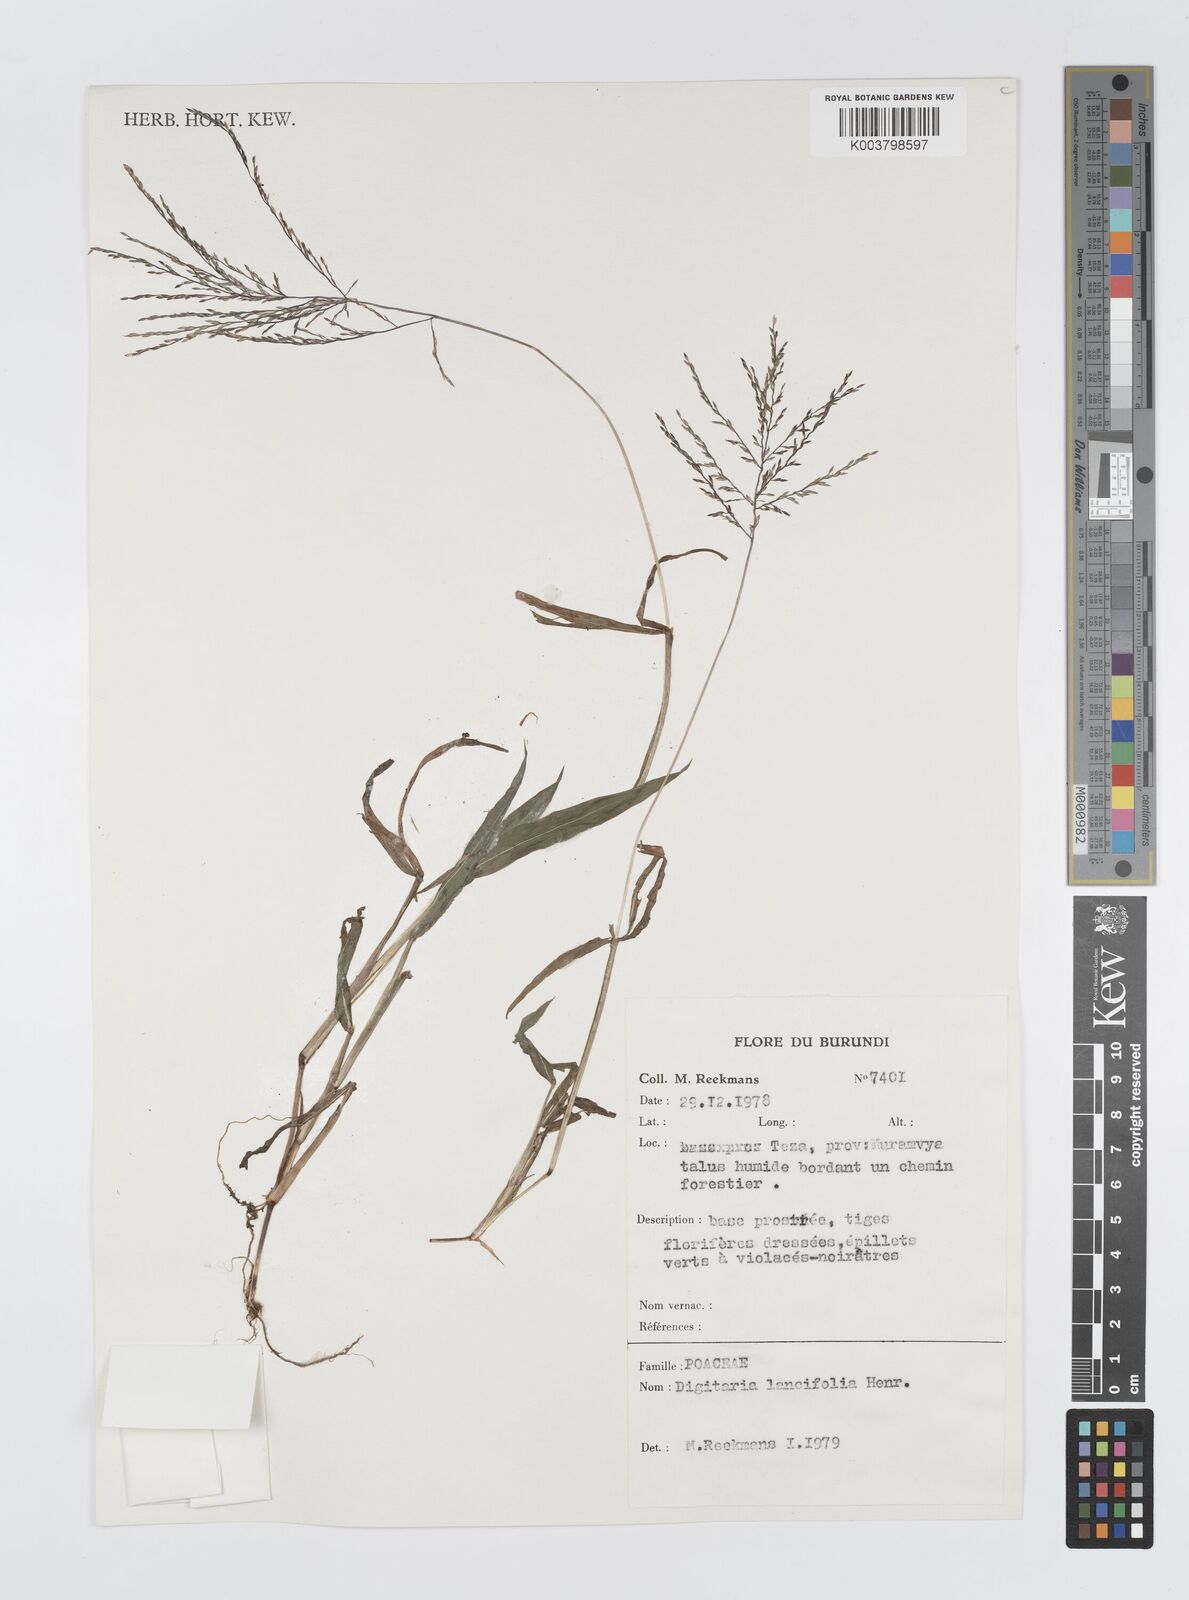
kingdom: Plantae
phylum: Tracheophyta
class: Liliopsida
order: Poales
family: Poaceae
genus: Digitaria
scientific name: Digitaria pearsonii
